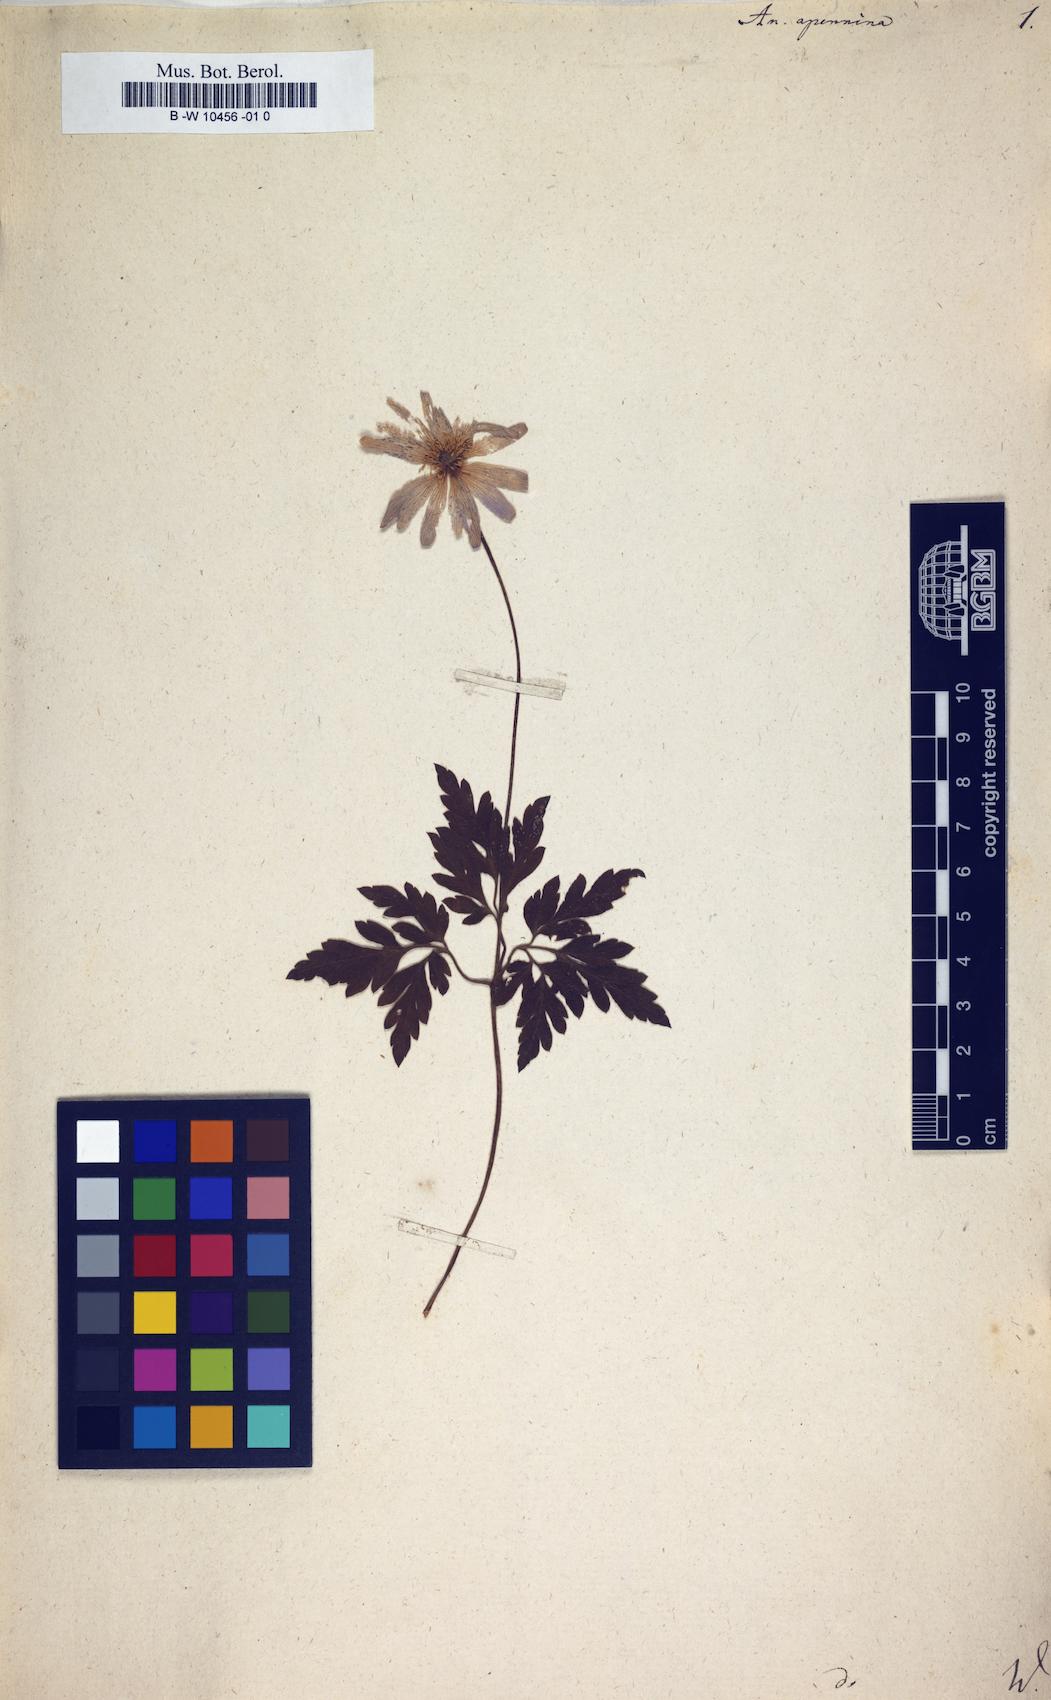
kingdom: Plantae
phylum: Tracheophyta
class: Magnoliopsida
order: Ranunculales
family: Ranunculaceae
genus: Anemone
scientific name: Anemone apennina
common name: Blue anemone
